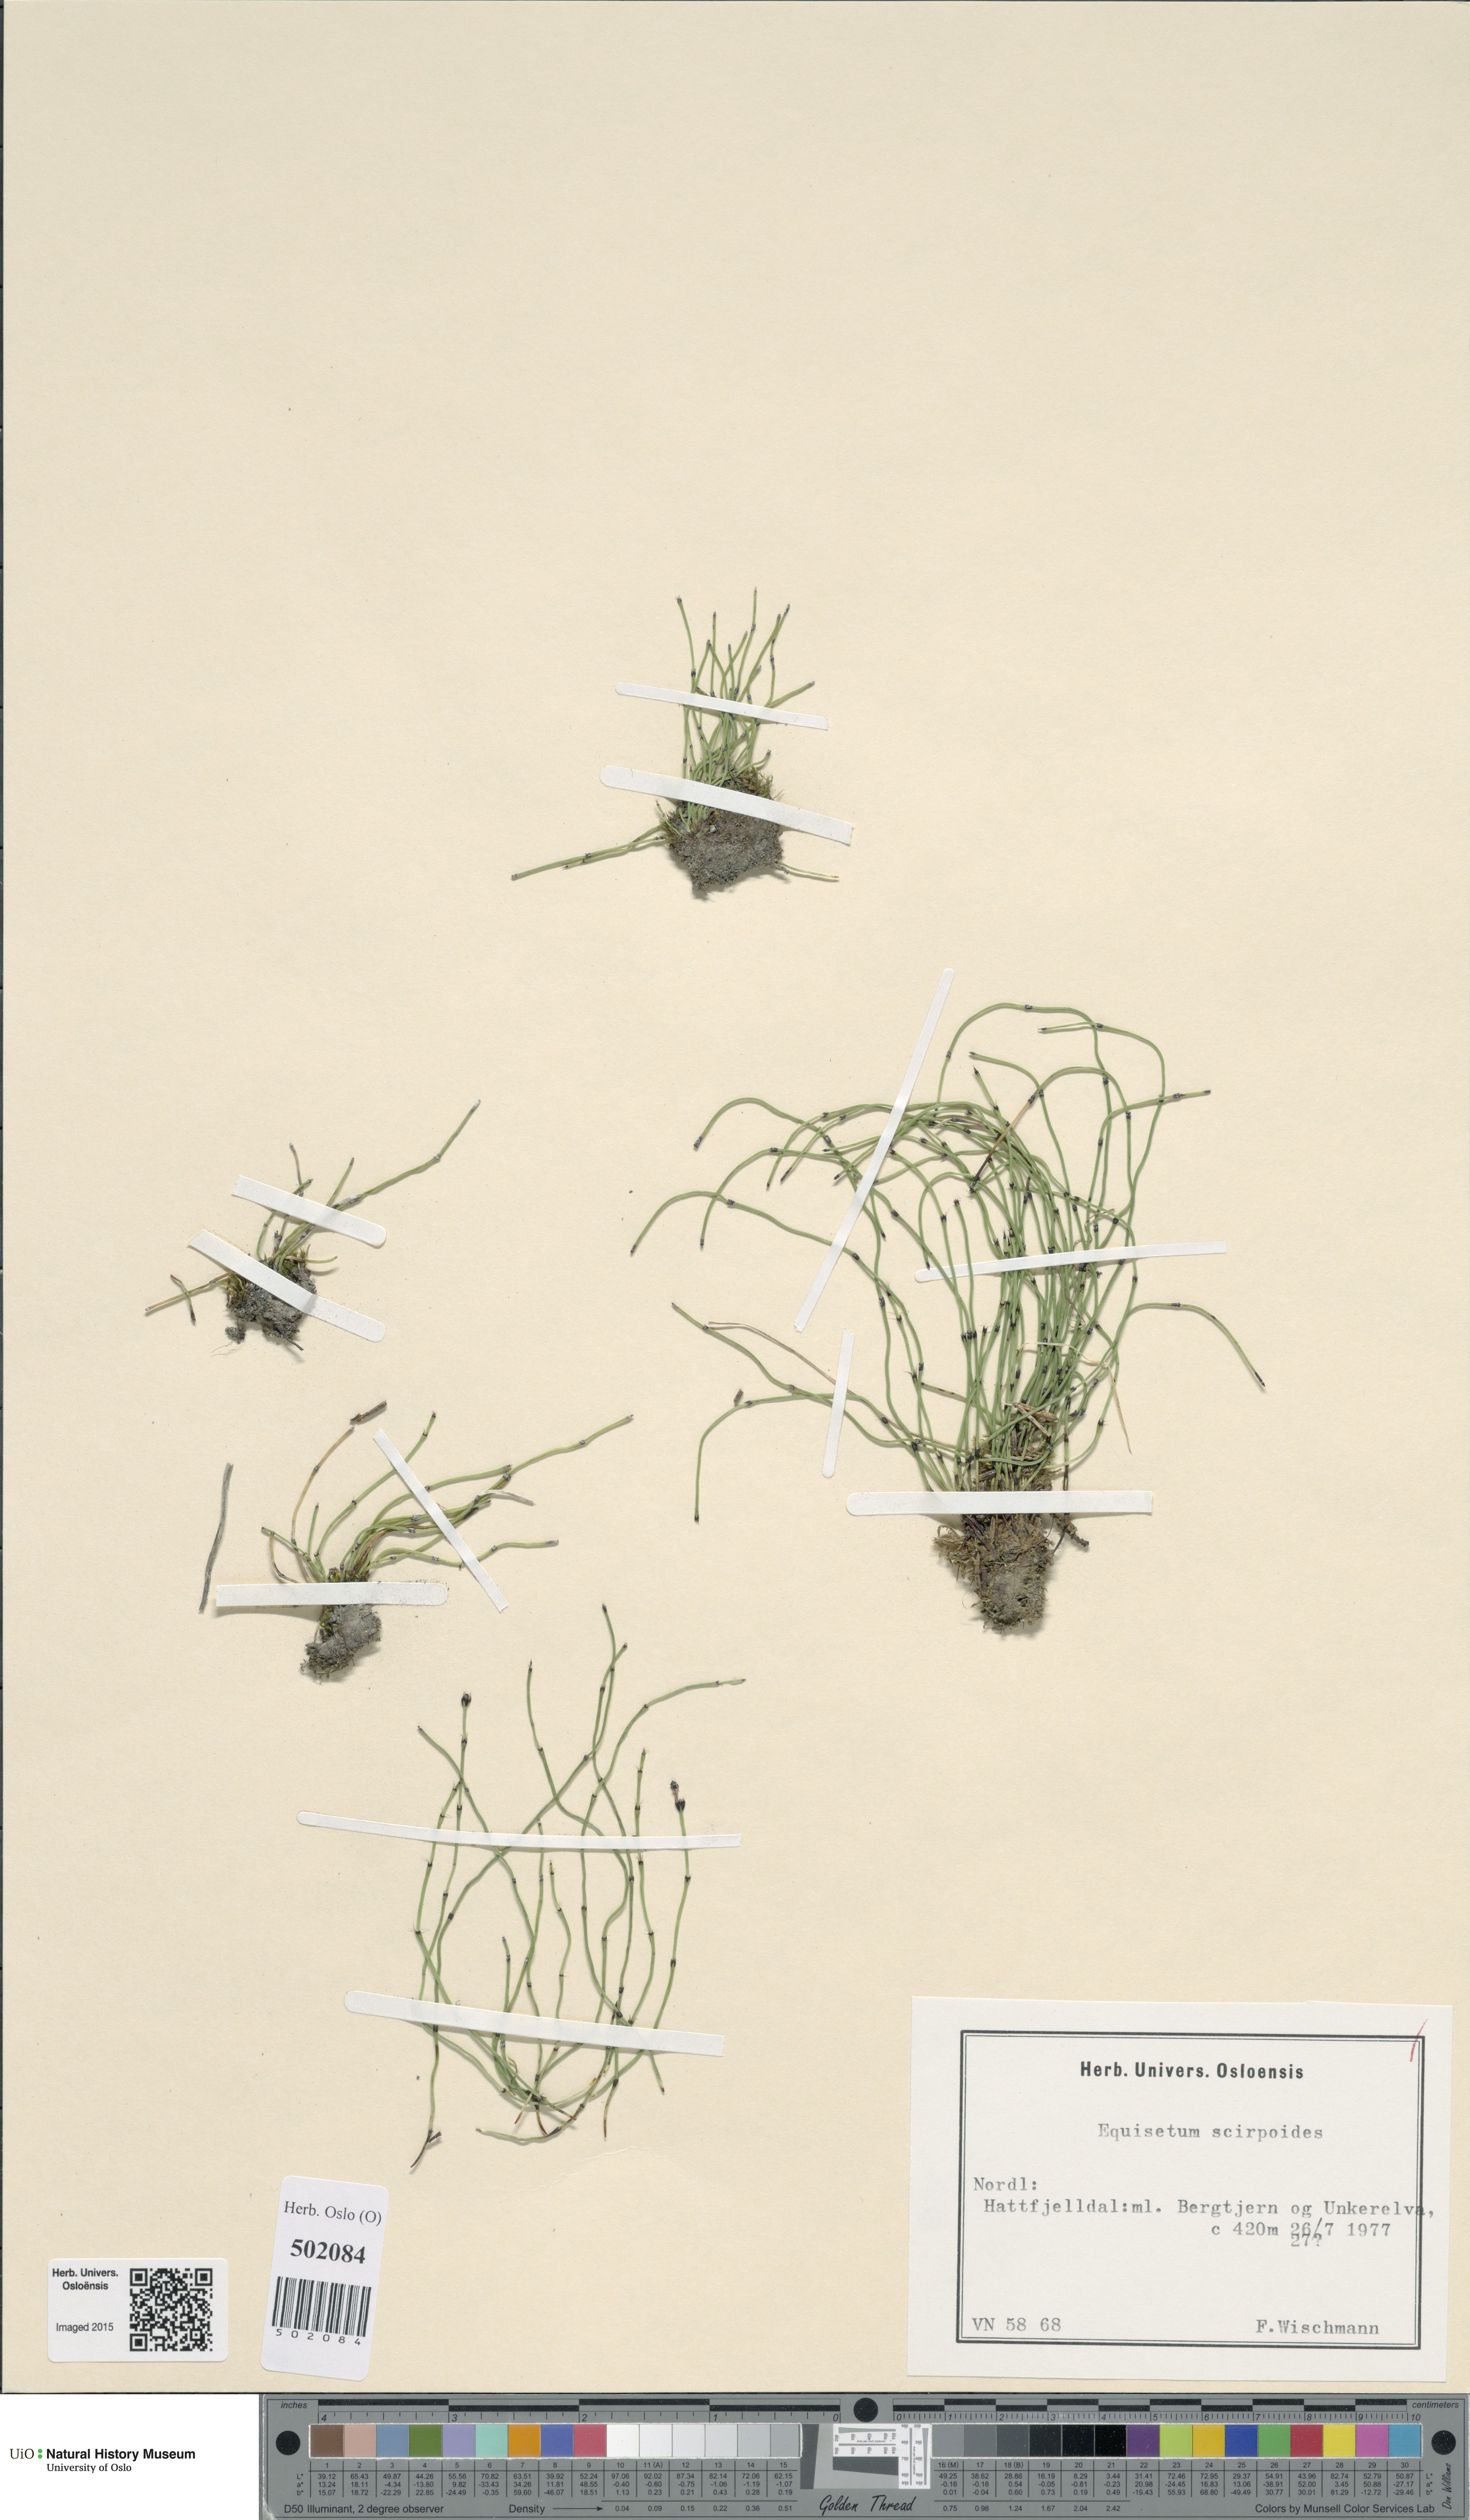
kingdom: Plantae
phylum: Tracheophyta
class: Polypodiopsida
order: Equisetales
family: Equisetaceae
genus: Equisetum
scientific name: Equisetum scirpoides
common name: Delicate horsetail
